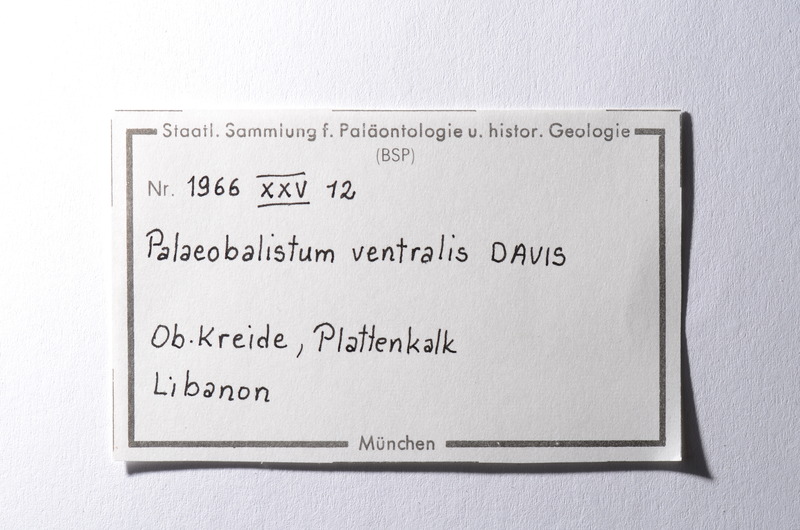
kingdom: Animalia
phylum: Chordata
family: Pycnodontes
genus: Palaeobalistum
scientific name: Palaeobalistum ventralis
